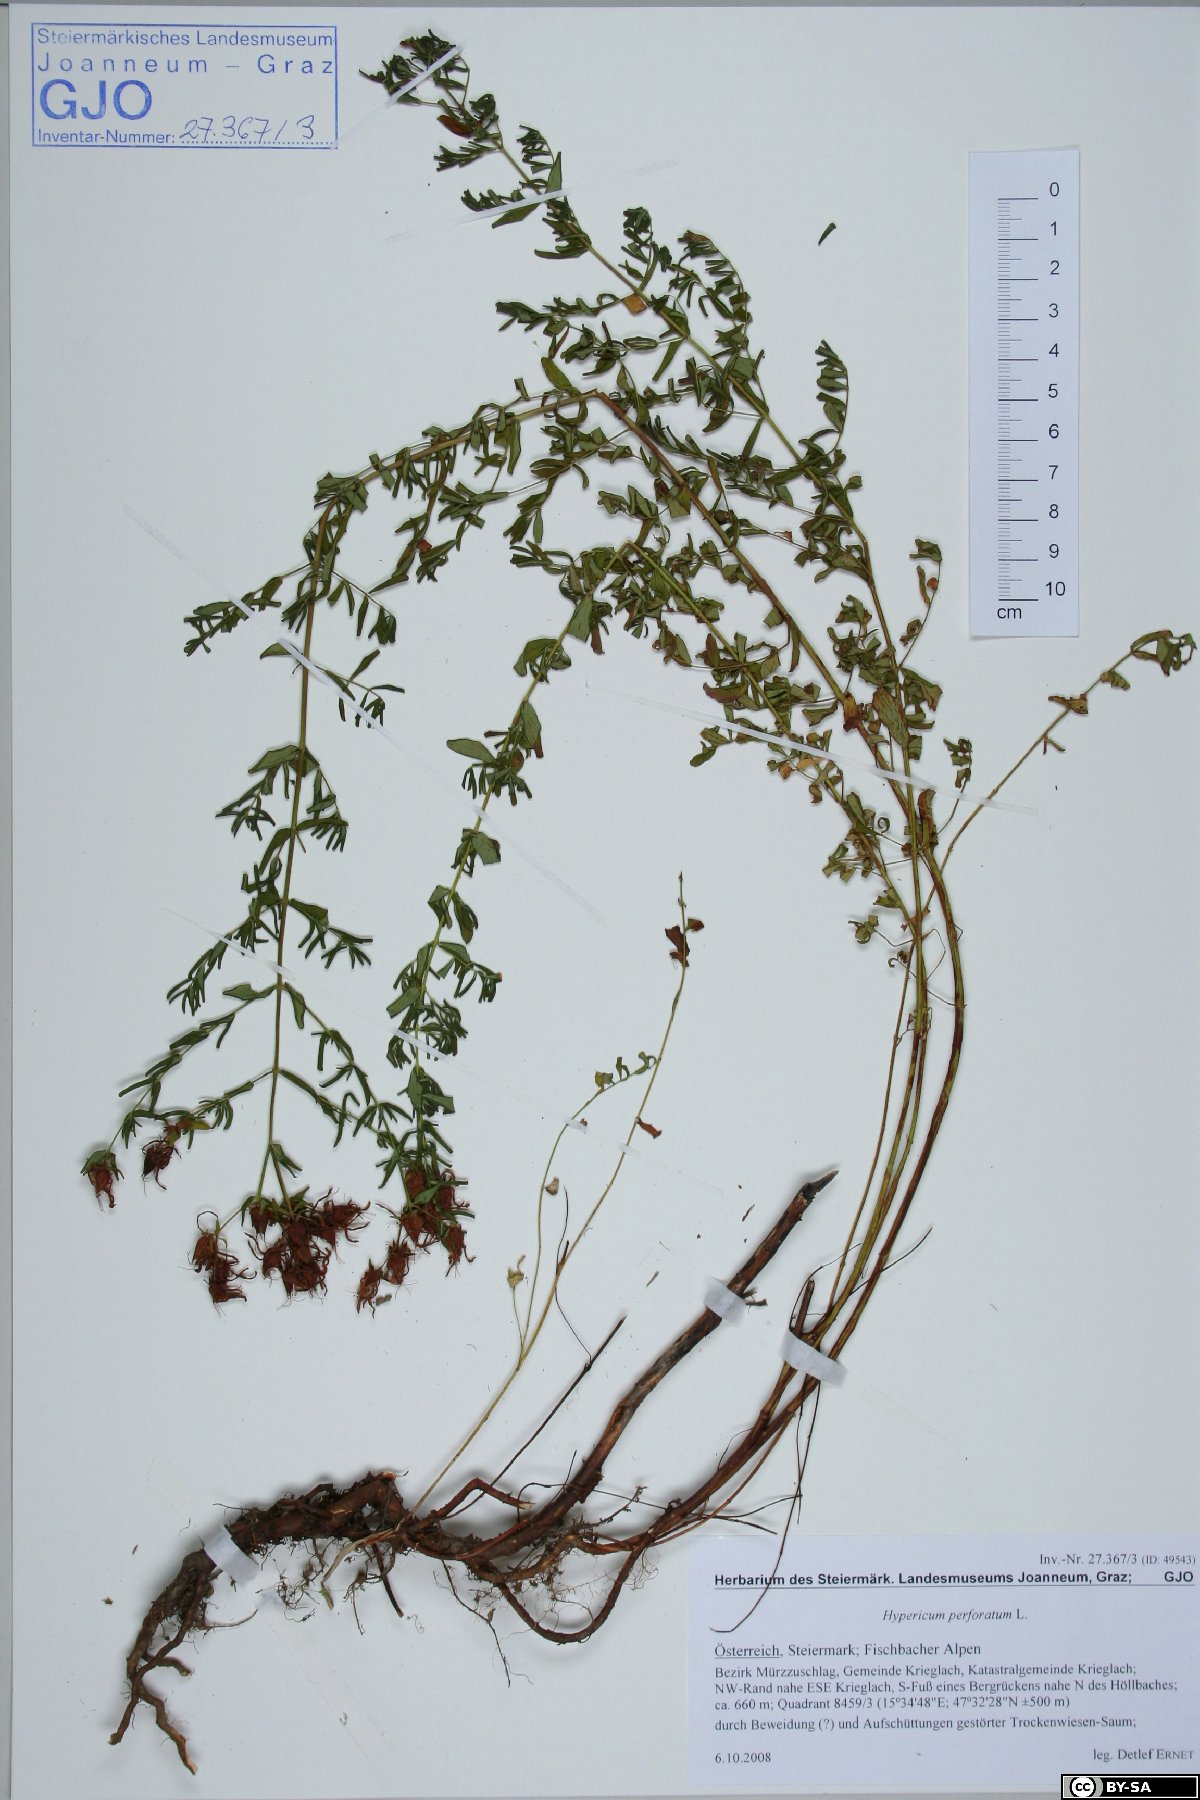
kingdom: Plantae
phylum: Tracheophyta
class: Magnoliopsida
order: Malpighiales
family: Hypericaceae
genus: Hypericum
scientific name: Hypericum perforatum
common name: Common st. johnswort
